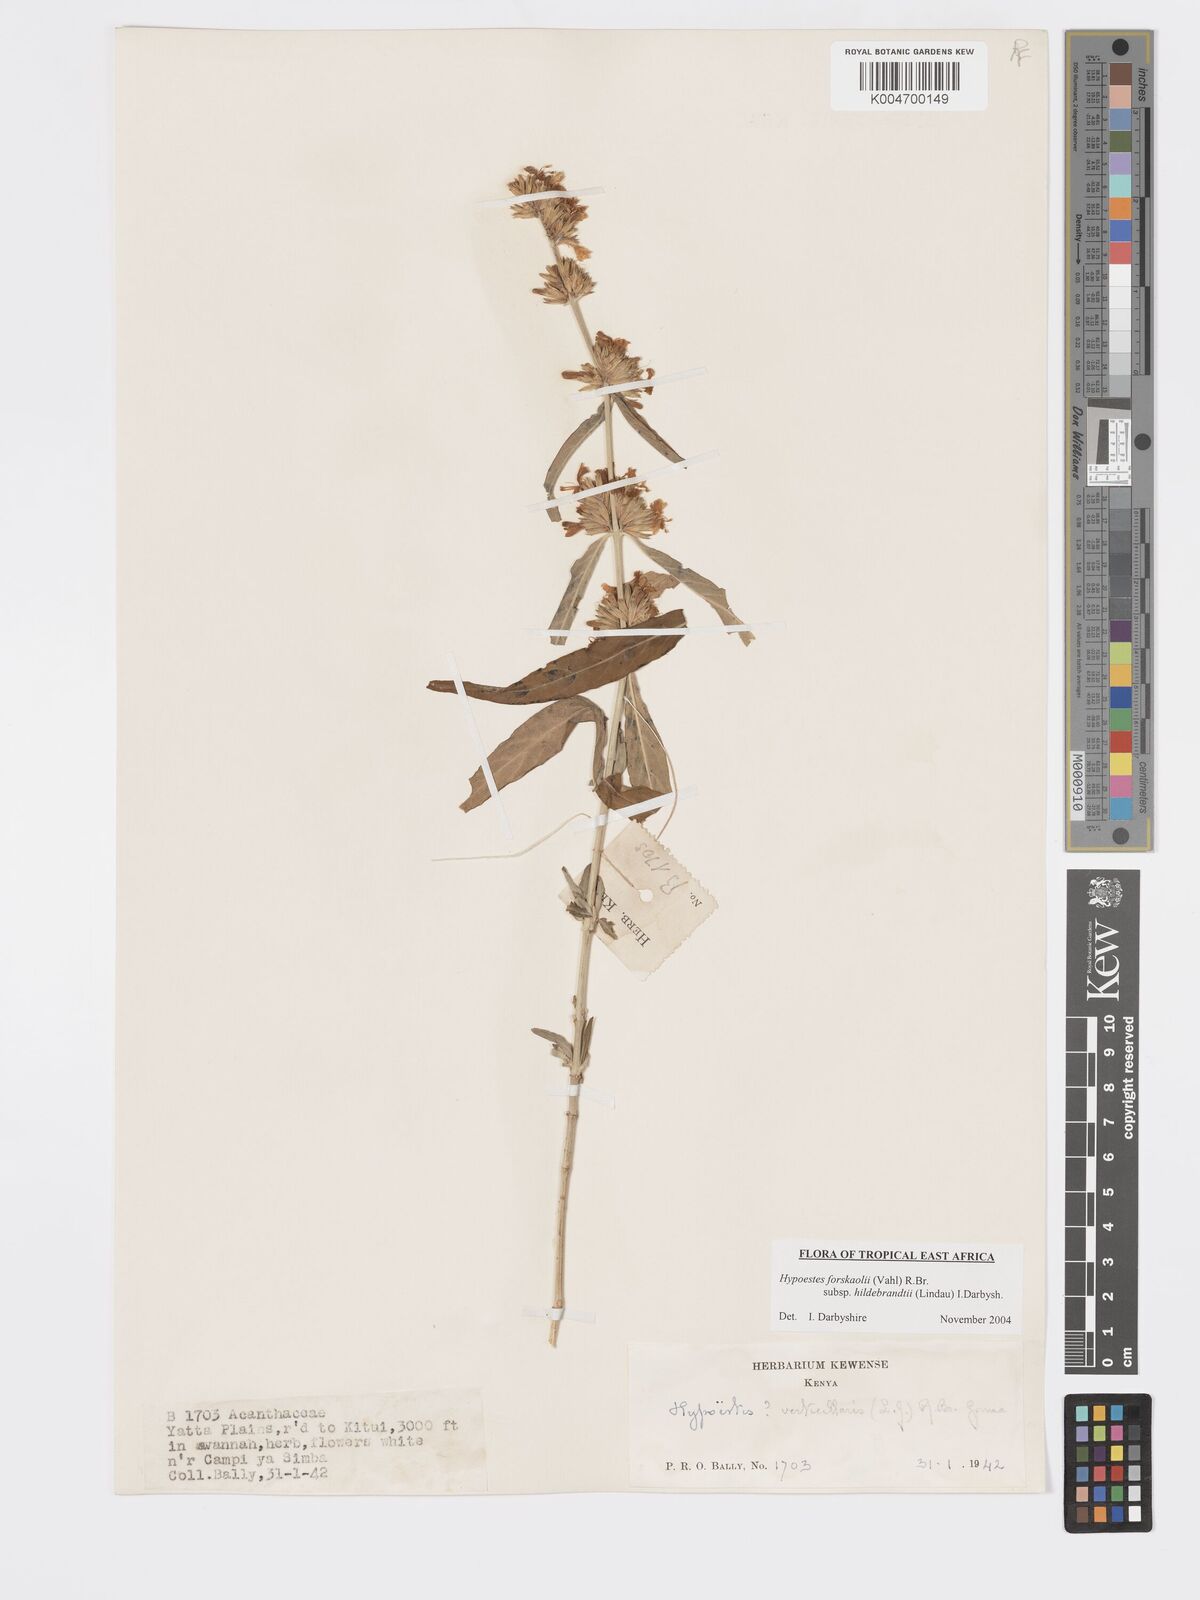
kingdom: Plantae
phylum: Tracheophyta
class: Magnoliopsida
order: Lamiales
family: Acanthaceae
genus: Hypoestes
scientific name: Hypoestes forskaolii
